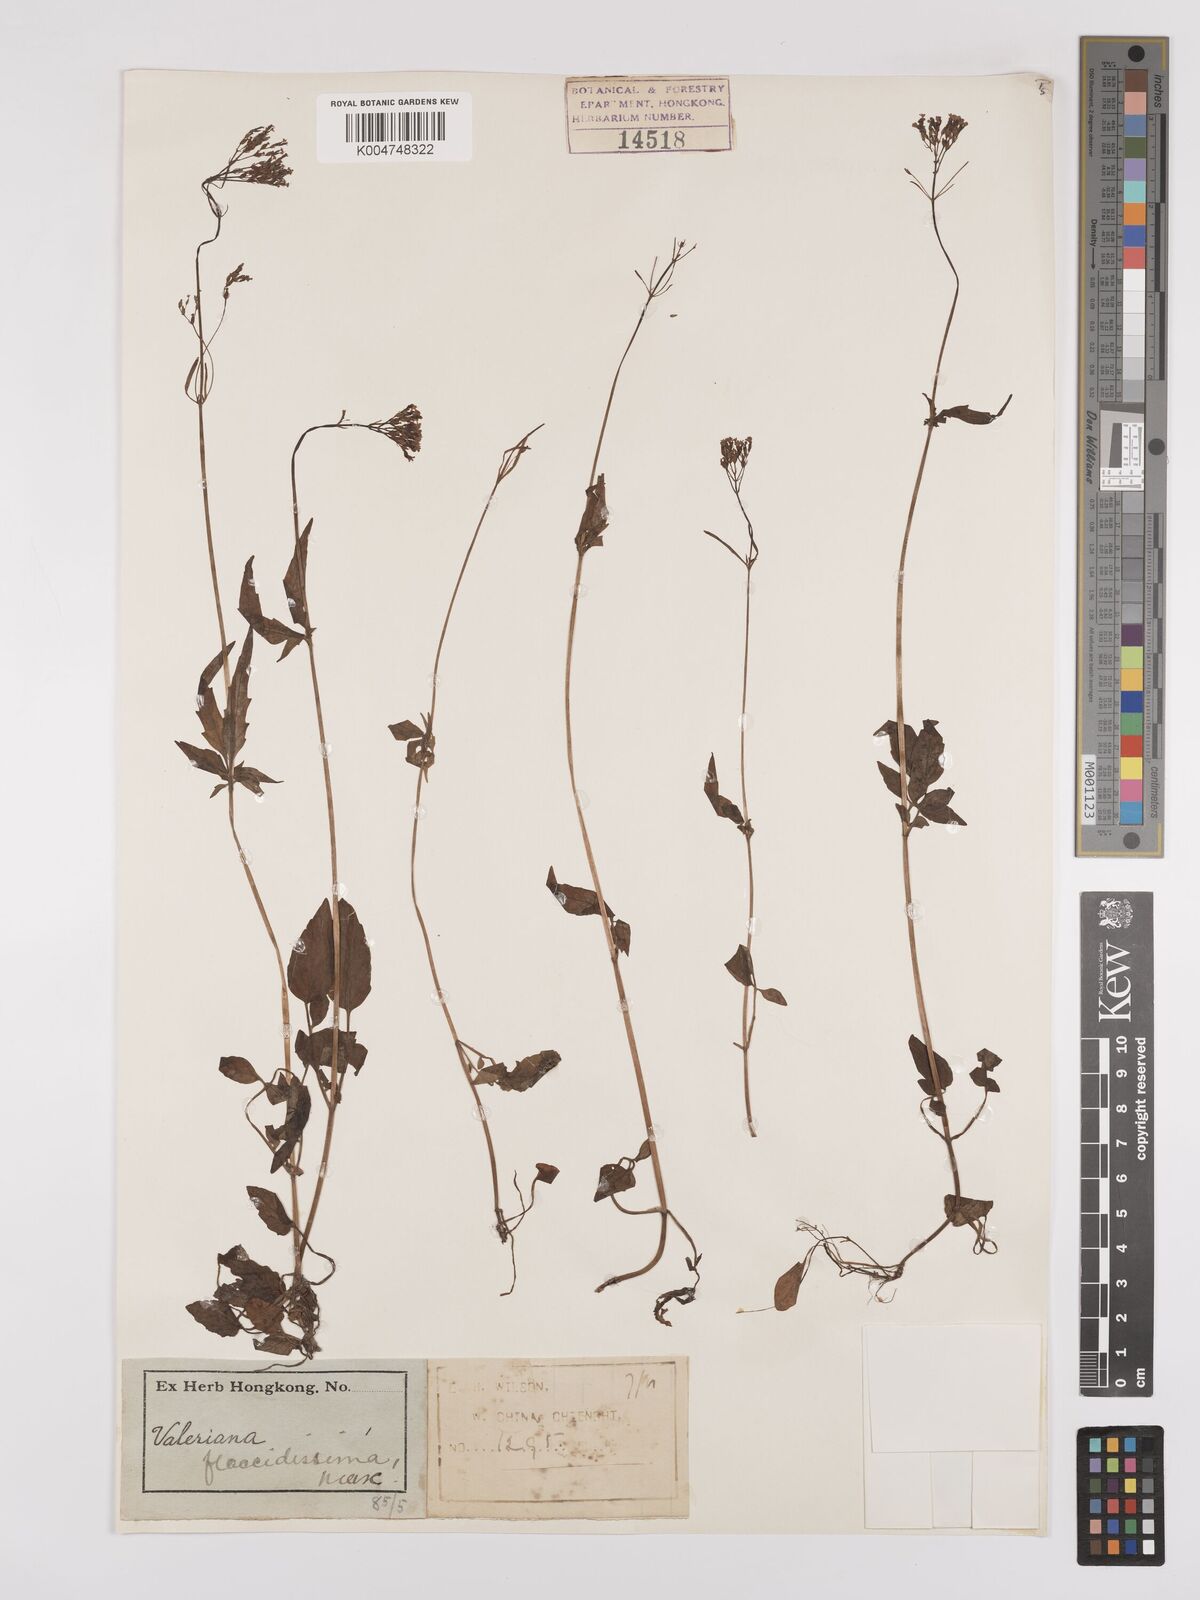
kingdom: Plantae
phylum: Tracheophyta
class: Magnoliopsida
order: Dipsacales
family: Caprifoliaceae
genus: Valeriana
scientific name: Valeriana flaccidissima
